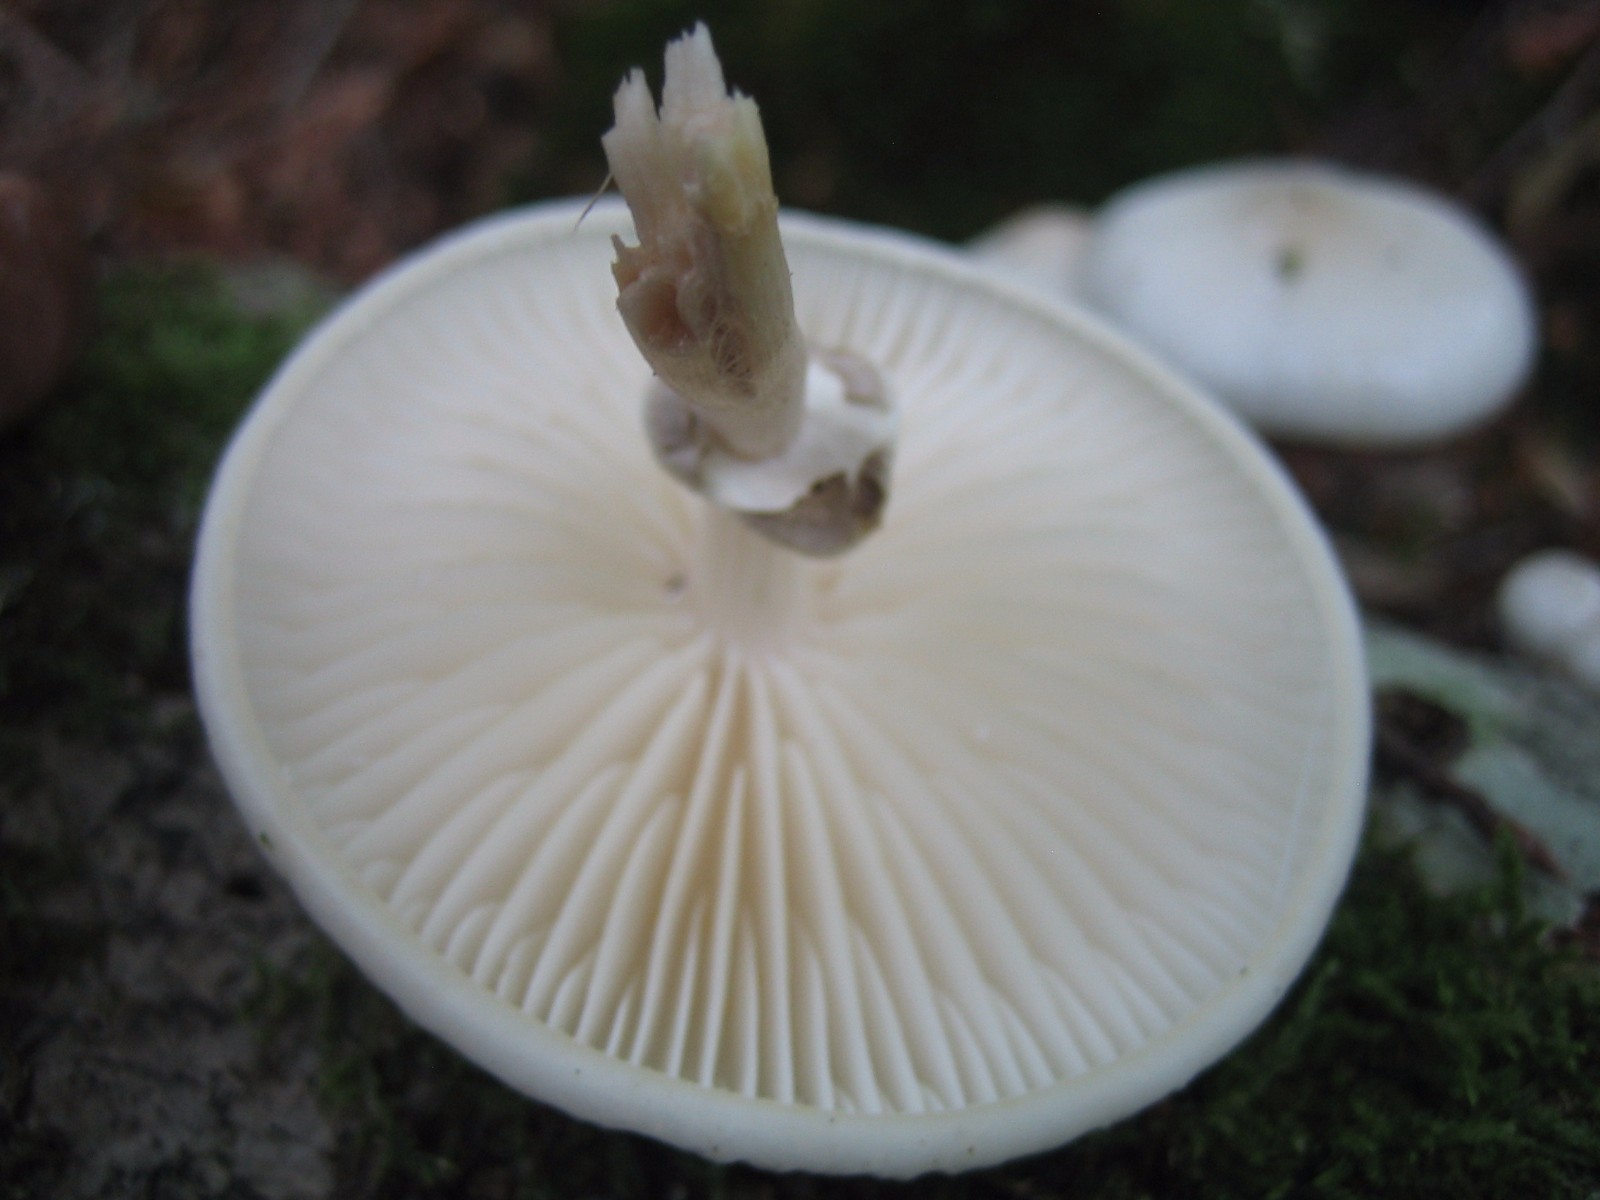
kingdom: Fungi
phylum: Basidiomycota
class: Agaricomycetes
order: Agaricales
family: Physalacriaceae
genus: Mucidula
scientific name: Mucidula mucida
